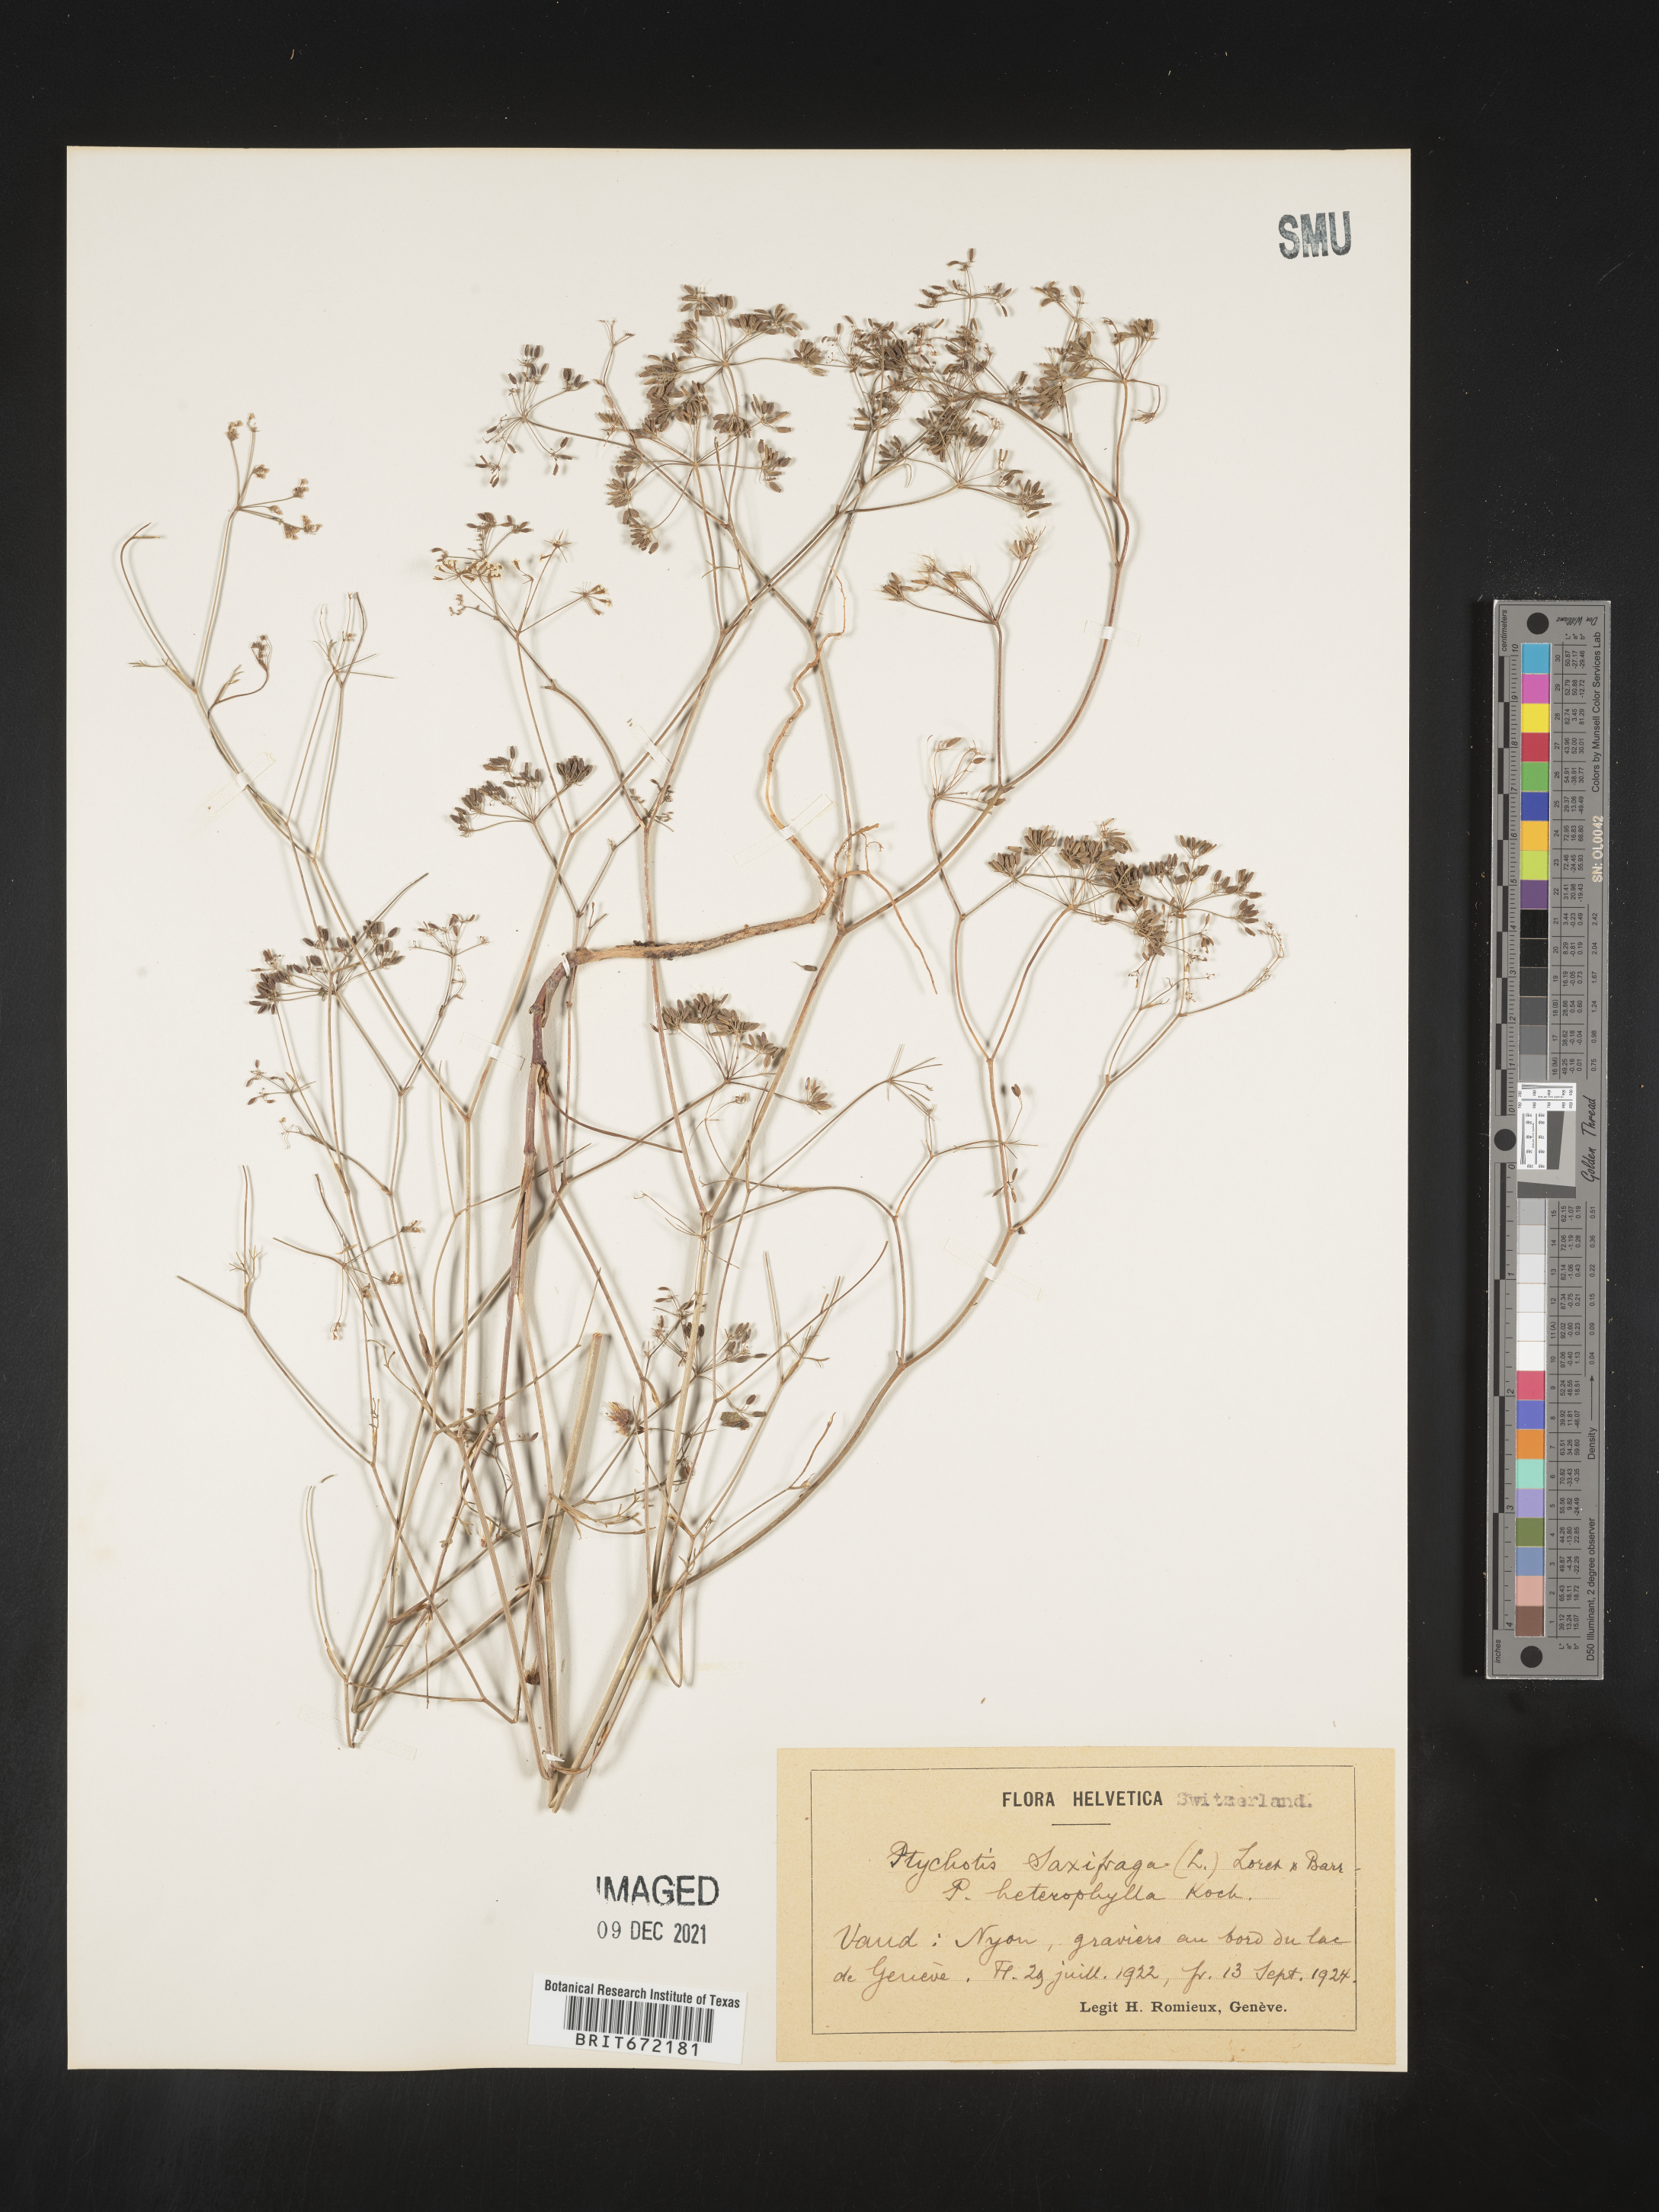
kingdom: Plantae
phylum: Tracheophyta
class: Magnoliopsida
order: Apiales
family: Apiaceae
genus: Ptychotis
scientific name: Ptychotis
